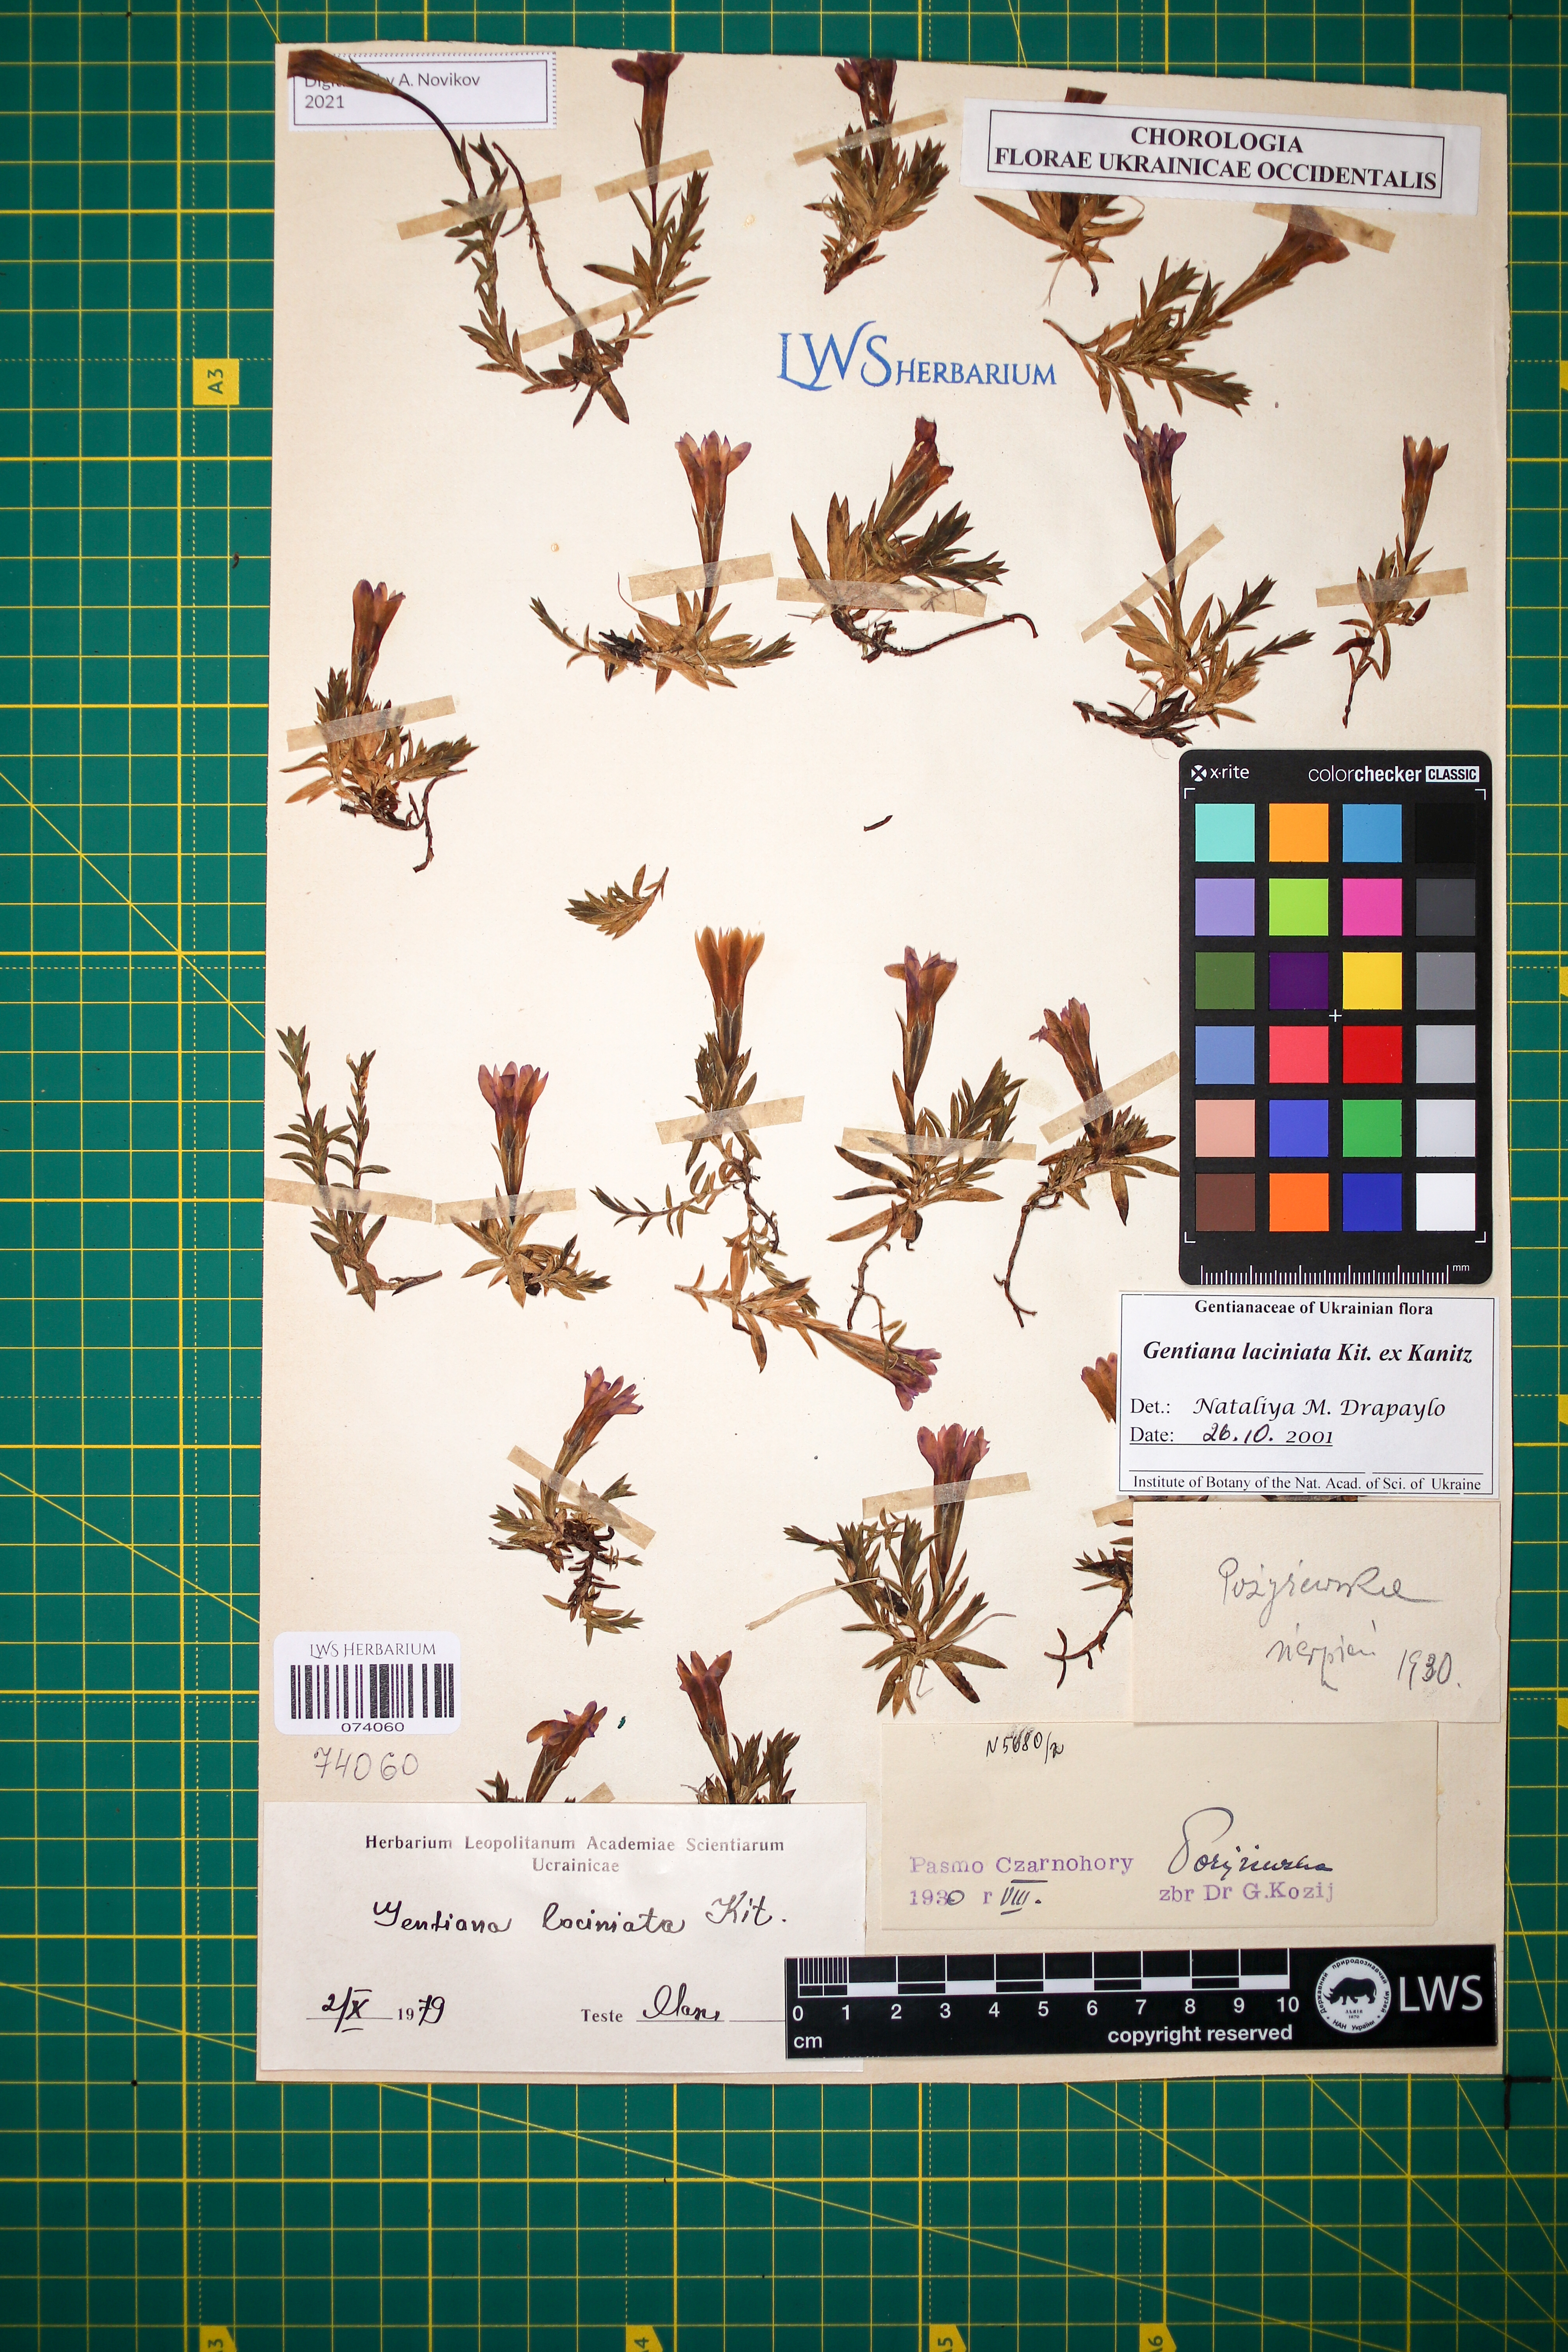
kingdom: Plantae
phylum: Tracheophyta
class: Magnoliopsida
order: Gentianales
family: Gentianaceae
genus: Gentiana
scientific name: Gentiana laciniata
